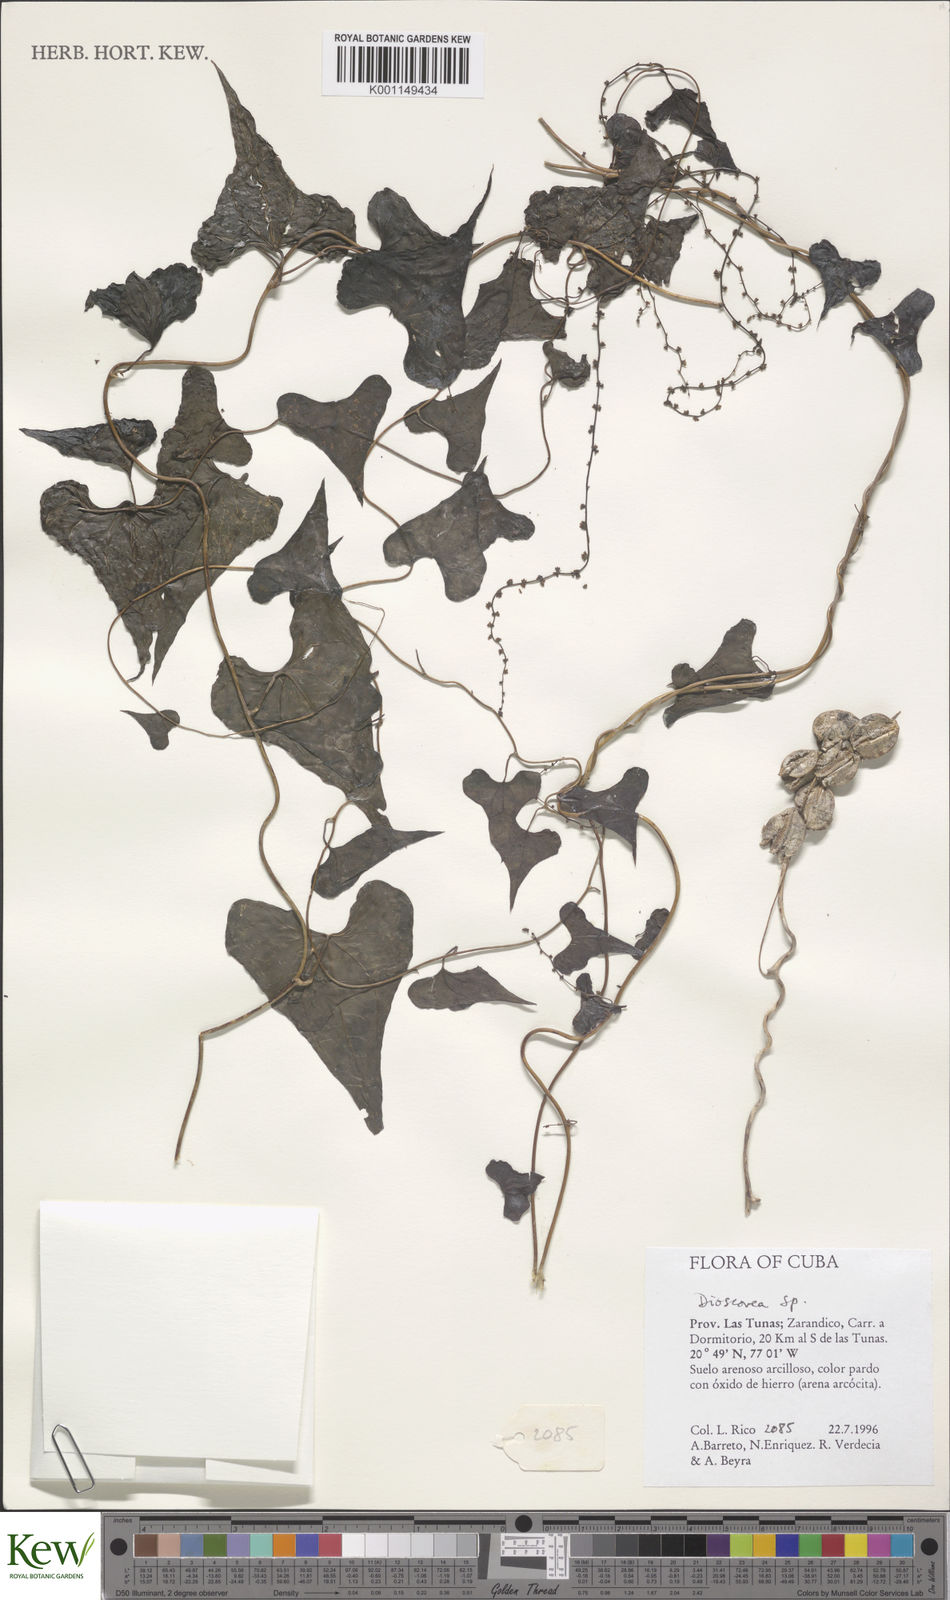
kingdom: Plantae
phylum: Tracheophyta
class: Liliopsida
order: Dioscoreales
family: Dioscoreaceae
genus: Dioscorea
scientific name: Dioscorea
